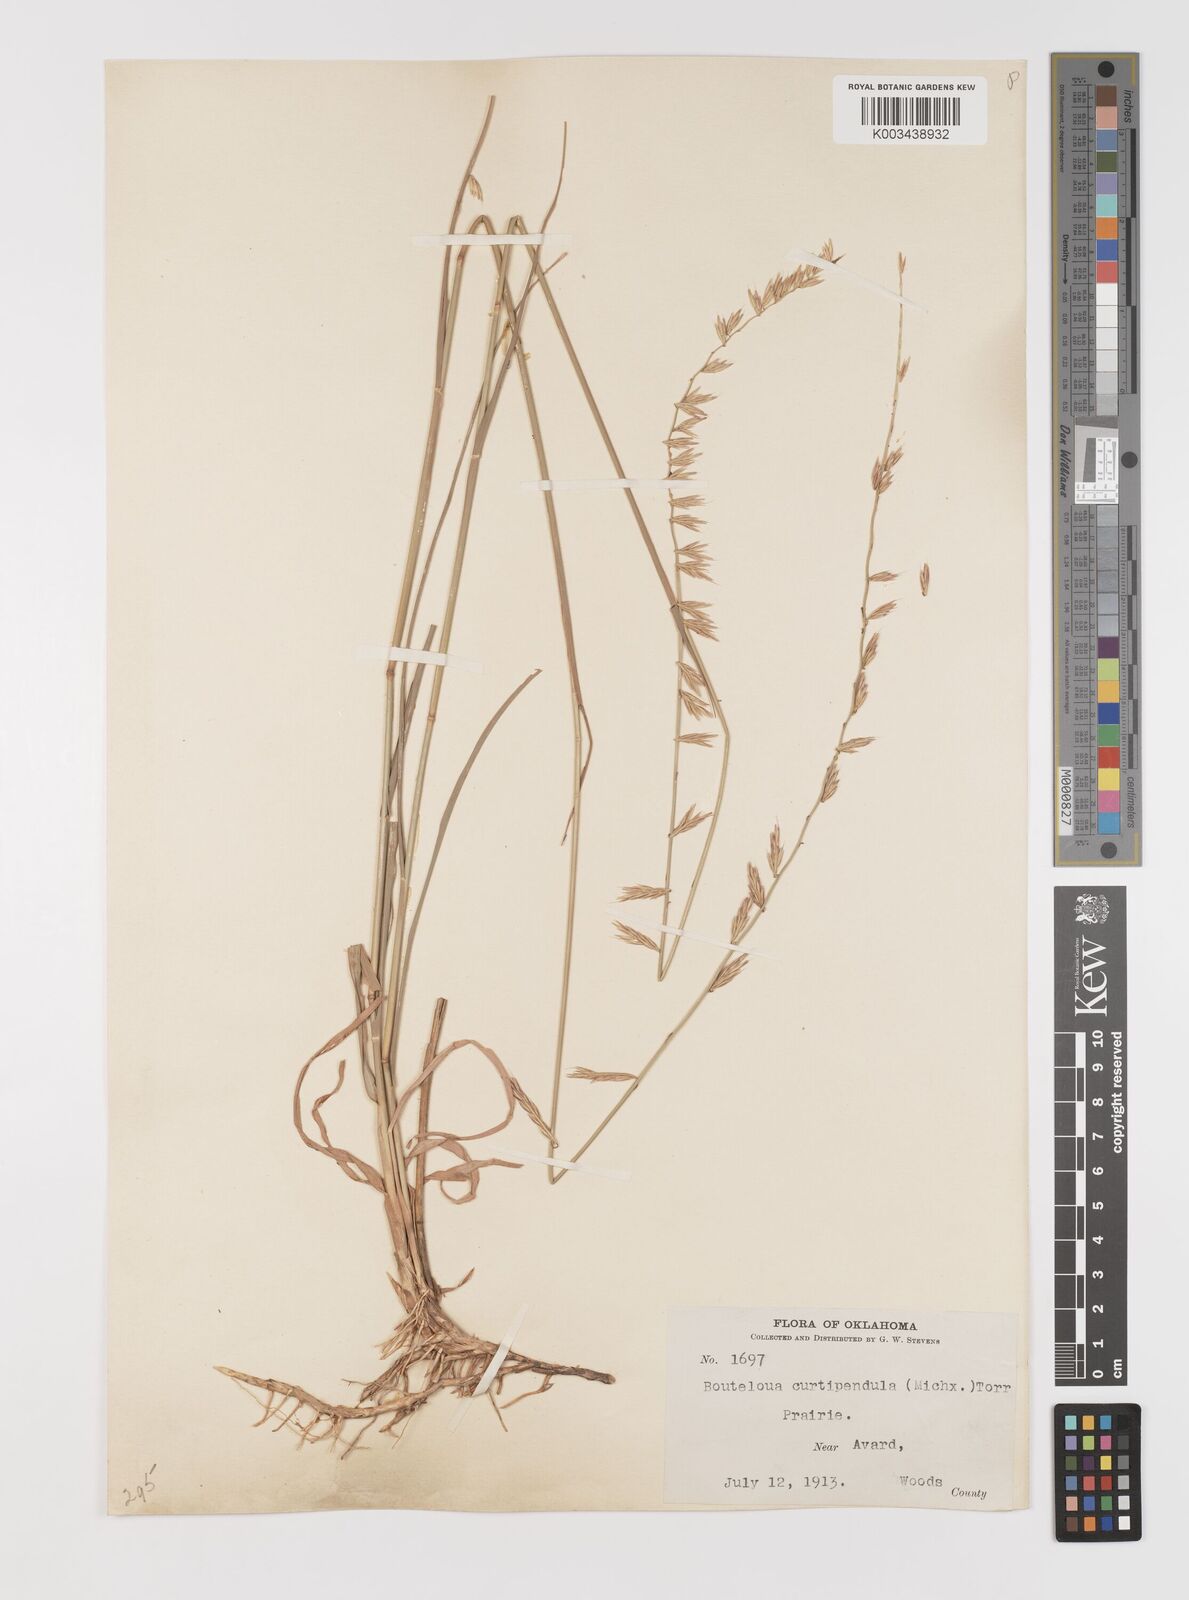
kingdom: Plantae
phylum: Tracheophyta
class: Liliopsida
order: Poales
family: Poaceae
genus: Bouteloua
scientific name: Bouteloua curtipendula
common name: Side-oats grama
